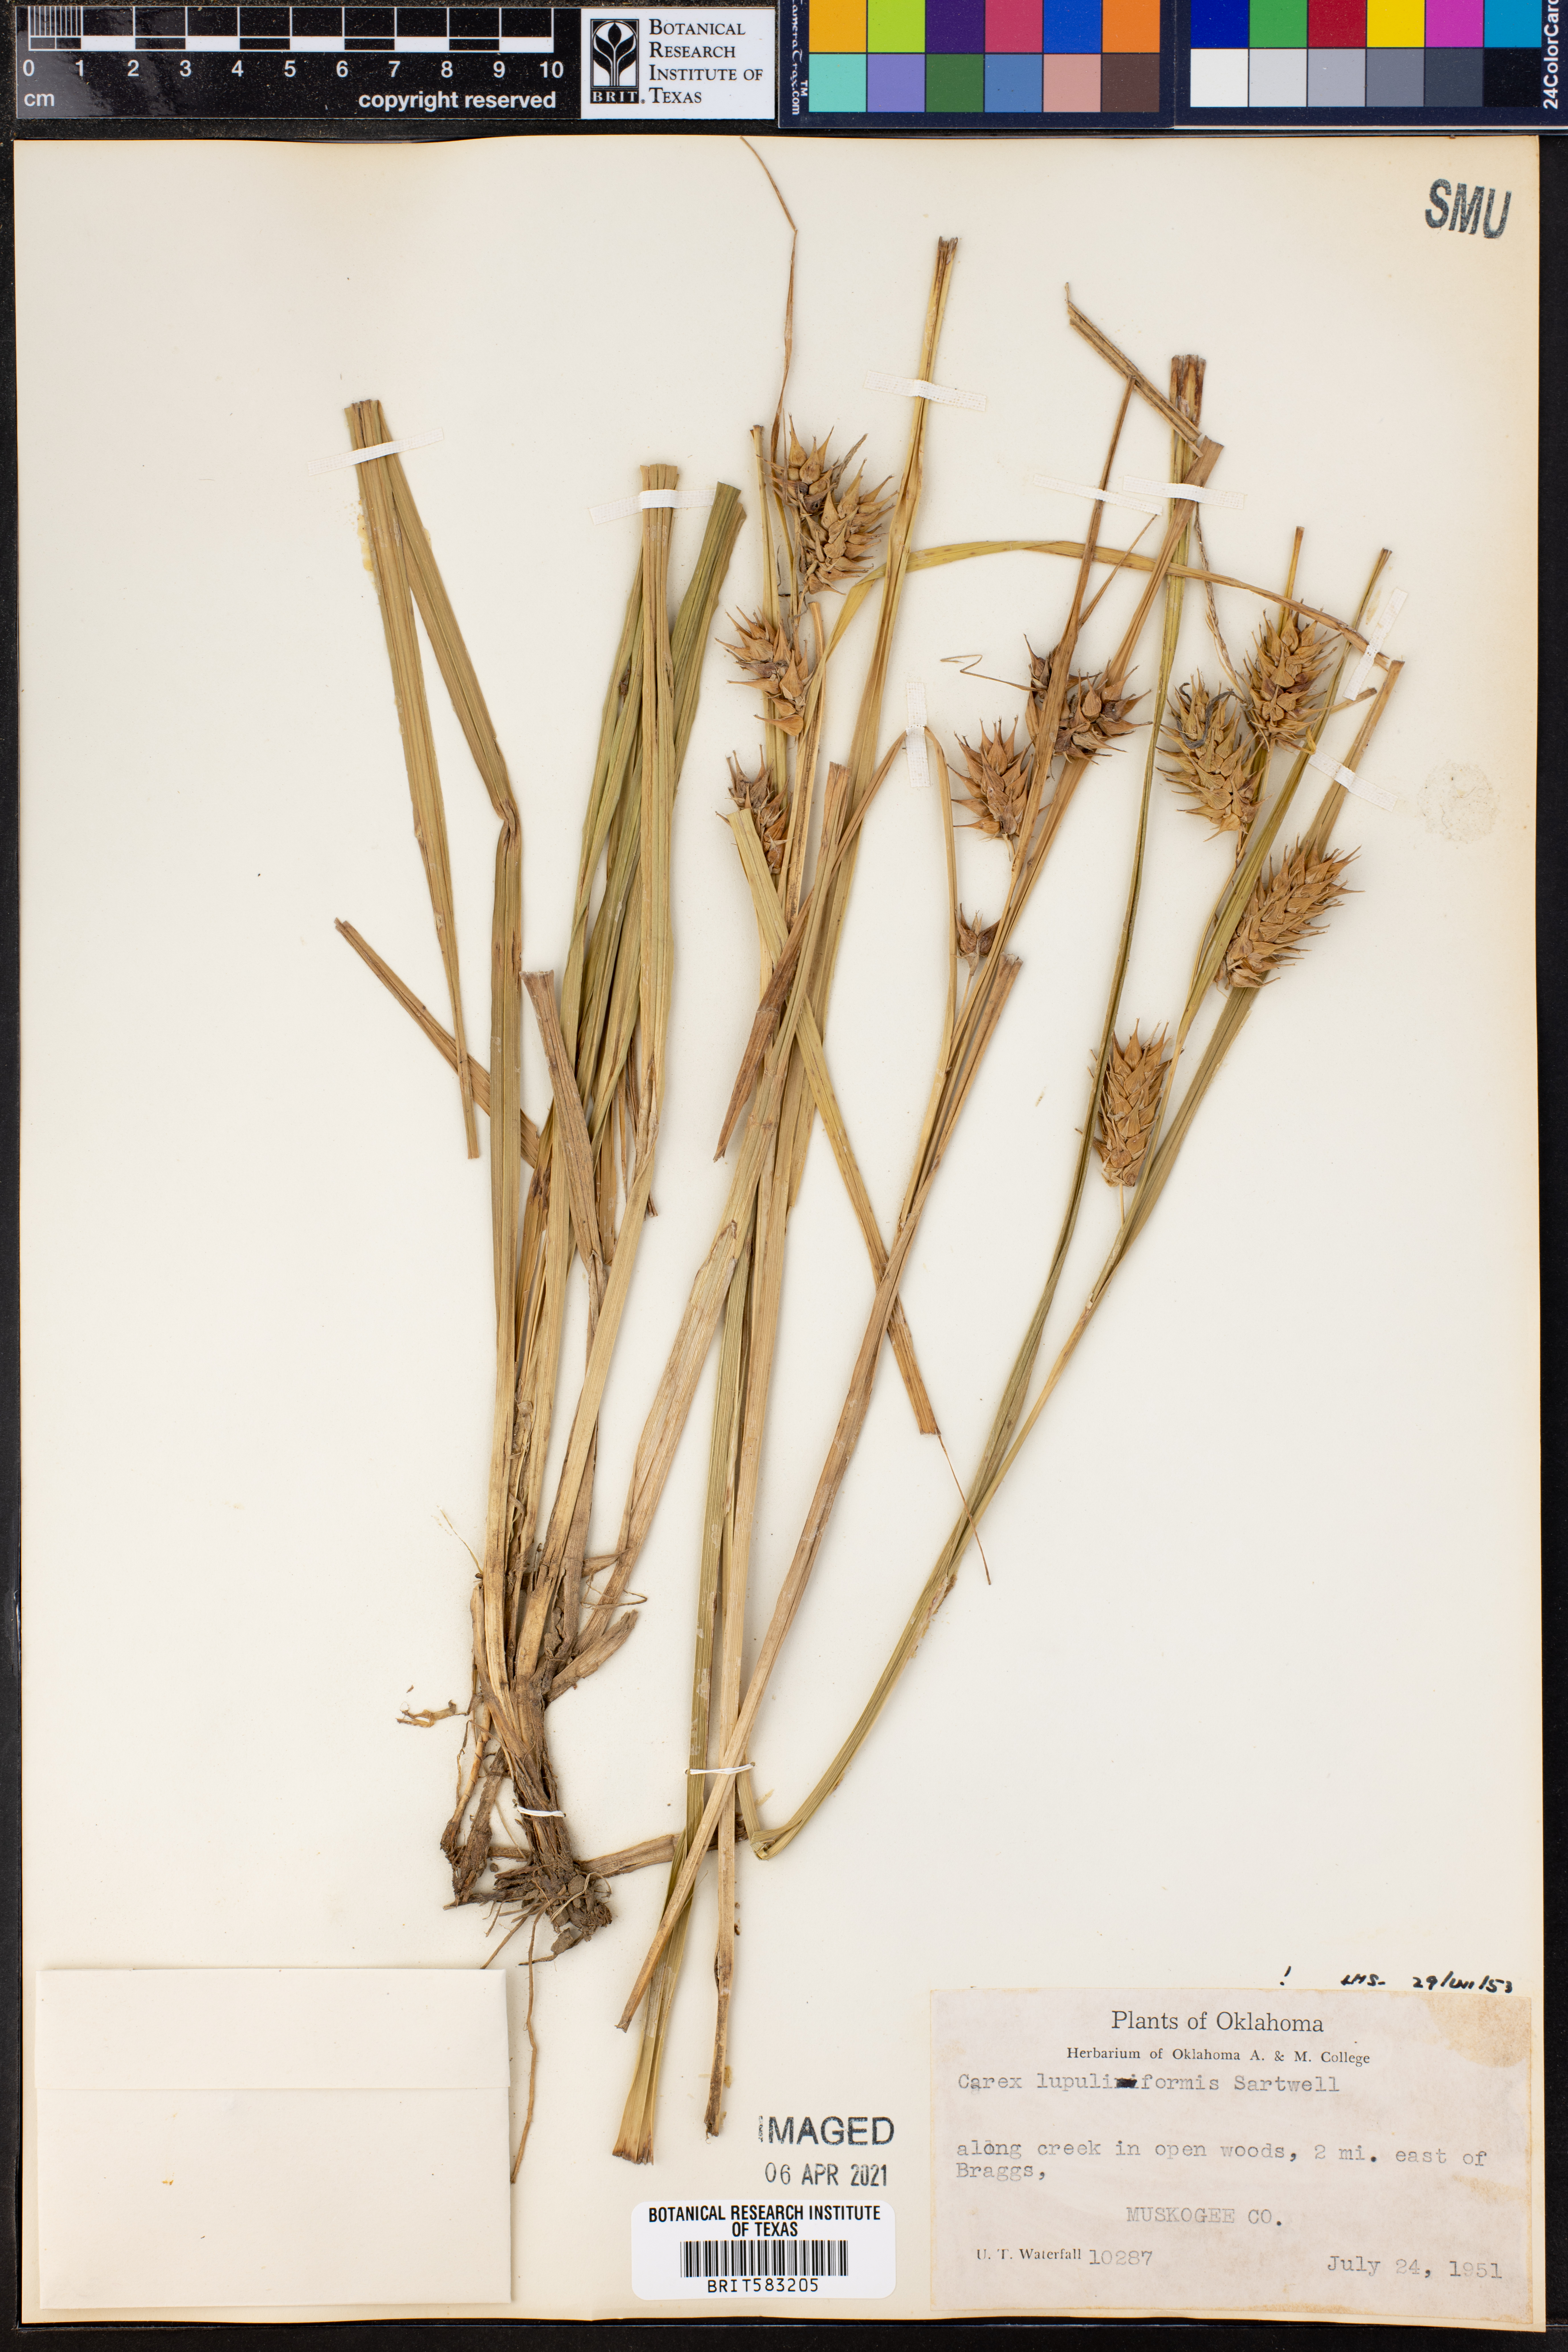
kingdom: Plantae
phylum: Tracheophyta
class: Liliopsida
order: Poales
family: Cyperaceae
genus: Carex
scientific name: Carex lupuliformis
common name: False hop sedge
